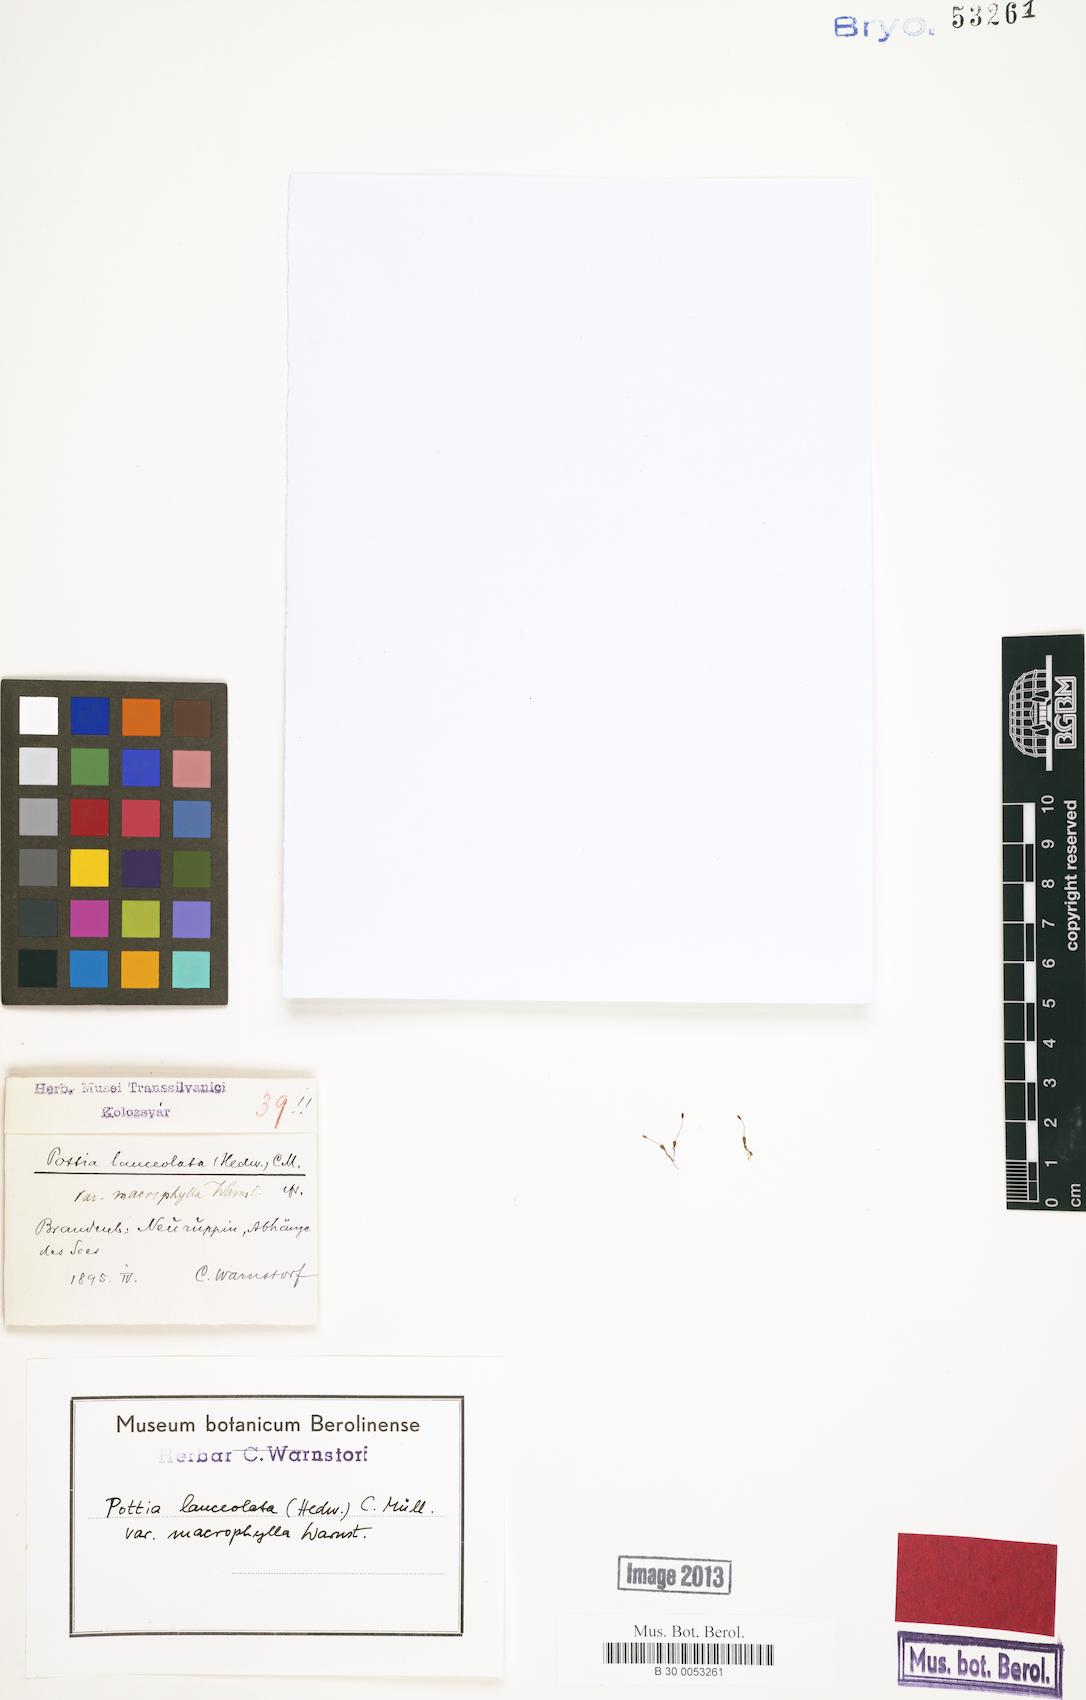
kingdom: Plantae
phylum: Bryophyta
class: Bryopsida
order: Pottiales
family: Pottiaceae
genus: Tortula
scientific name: Tortula lindbergii
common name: Lance-leaved pottia
